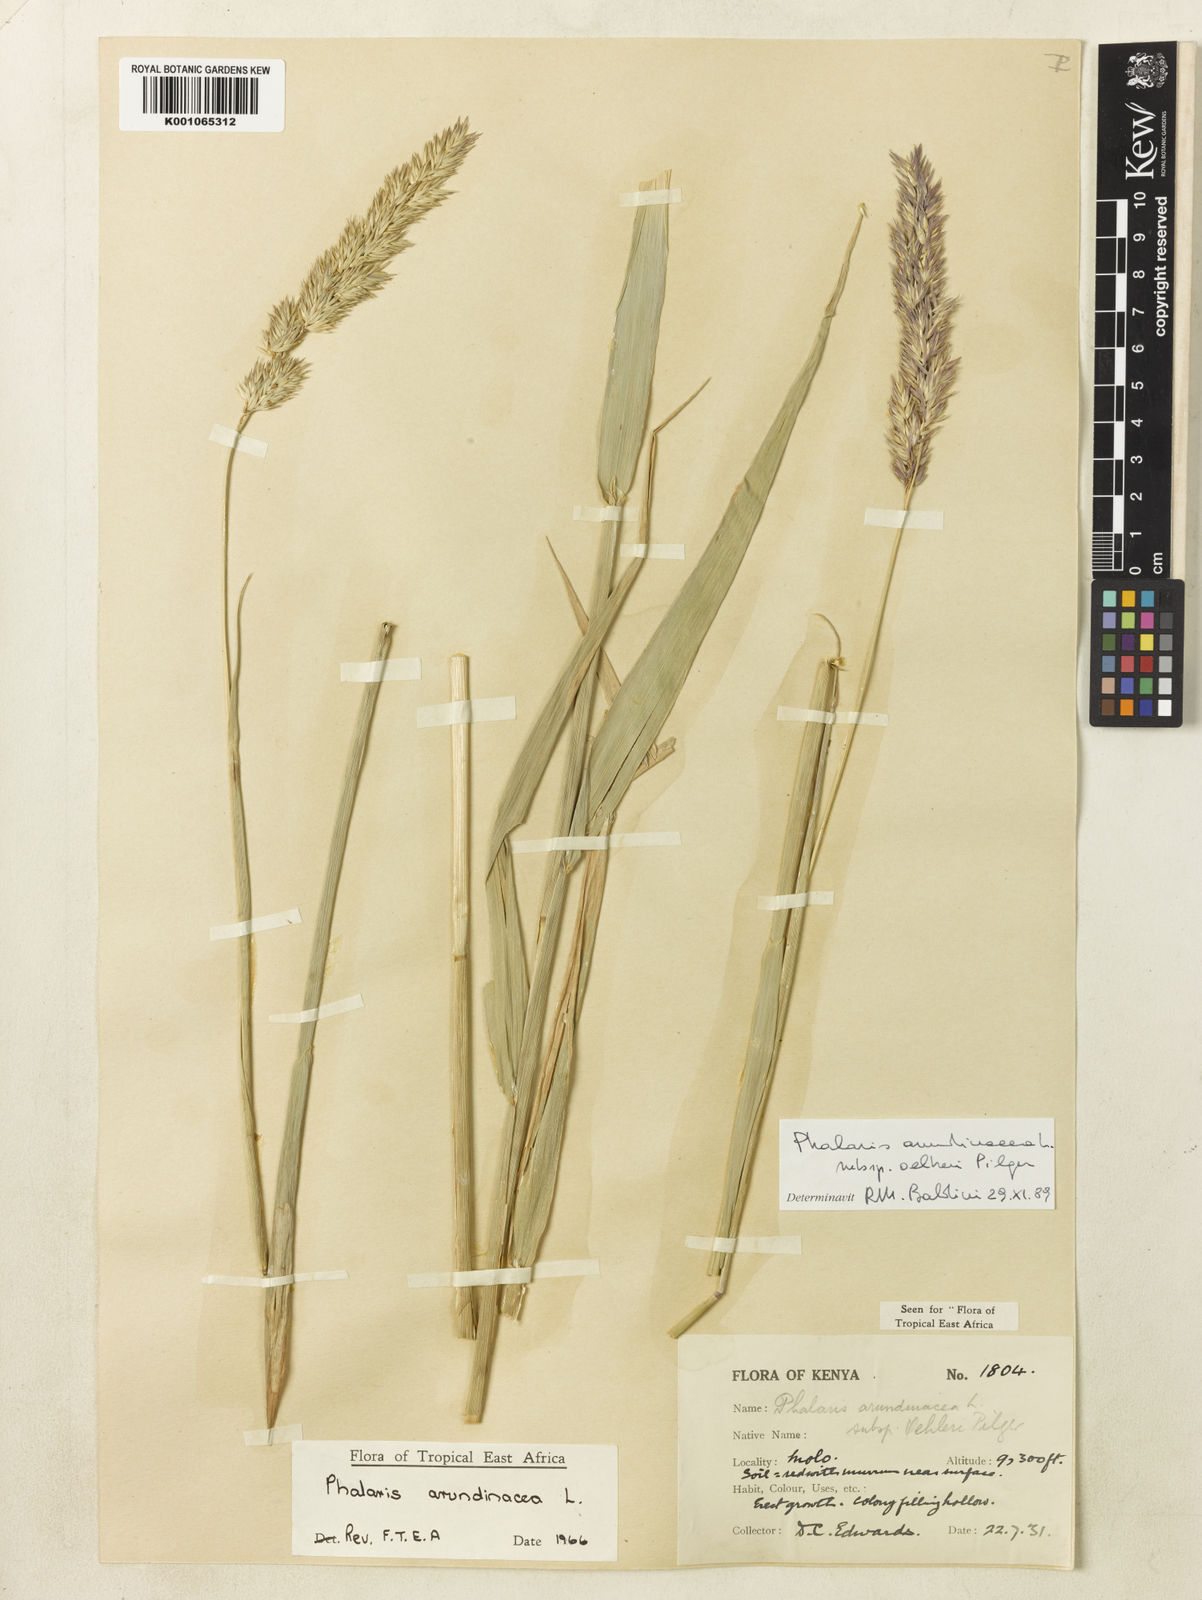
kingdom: Plantae
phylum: Tracheophyta
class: Liliopsida
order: Poales
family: Poaceae
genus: Phalaris
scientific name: Phalaris arundinacea
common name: Reed canary-grass
